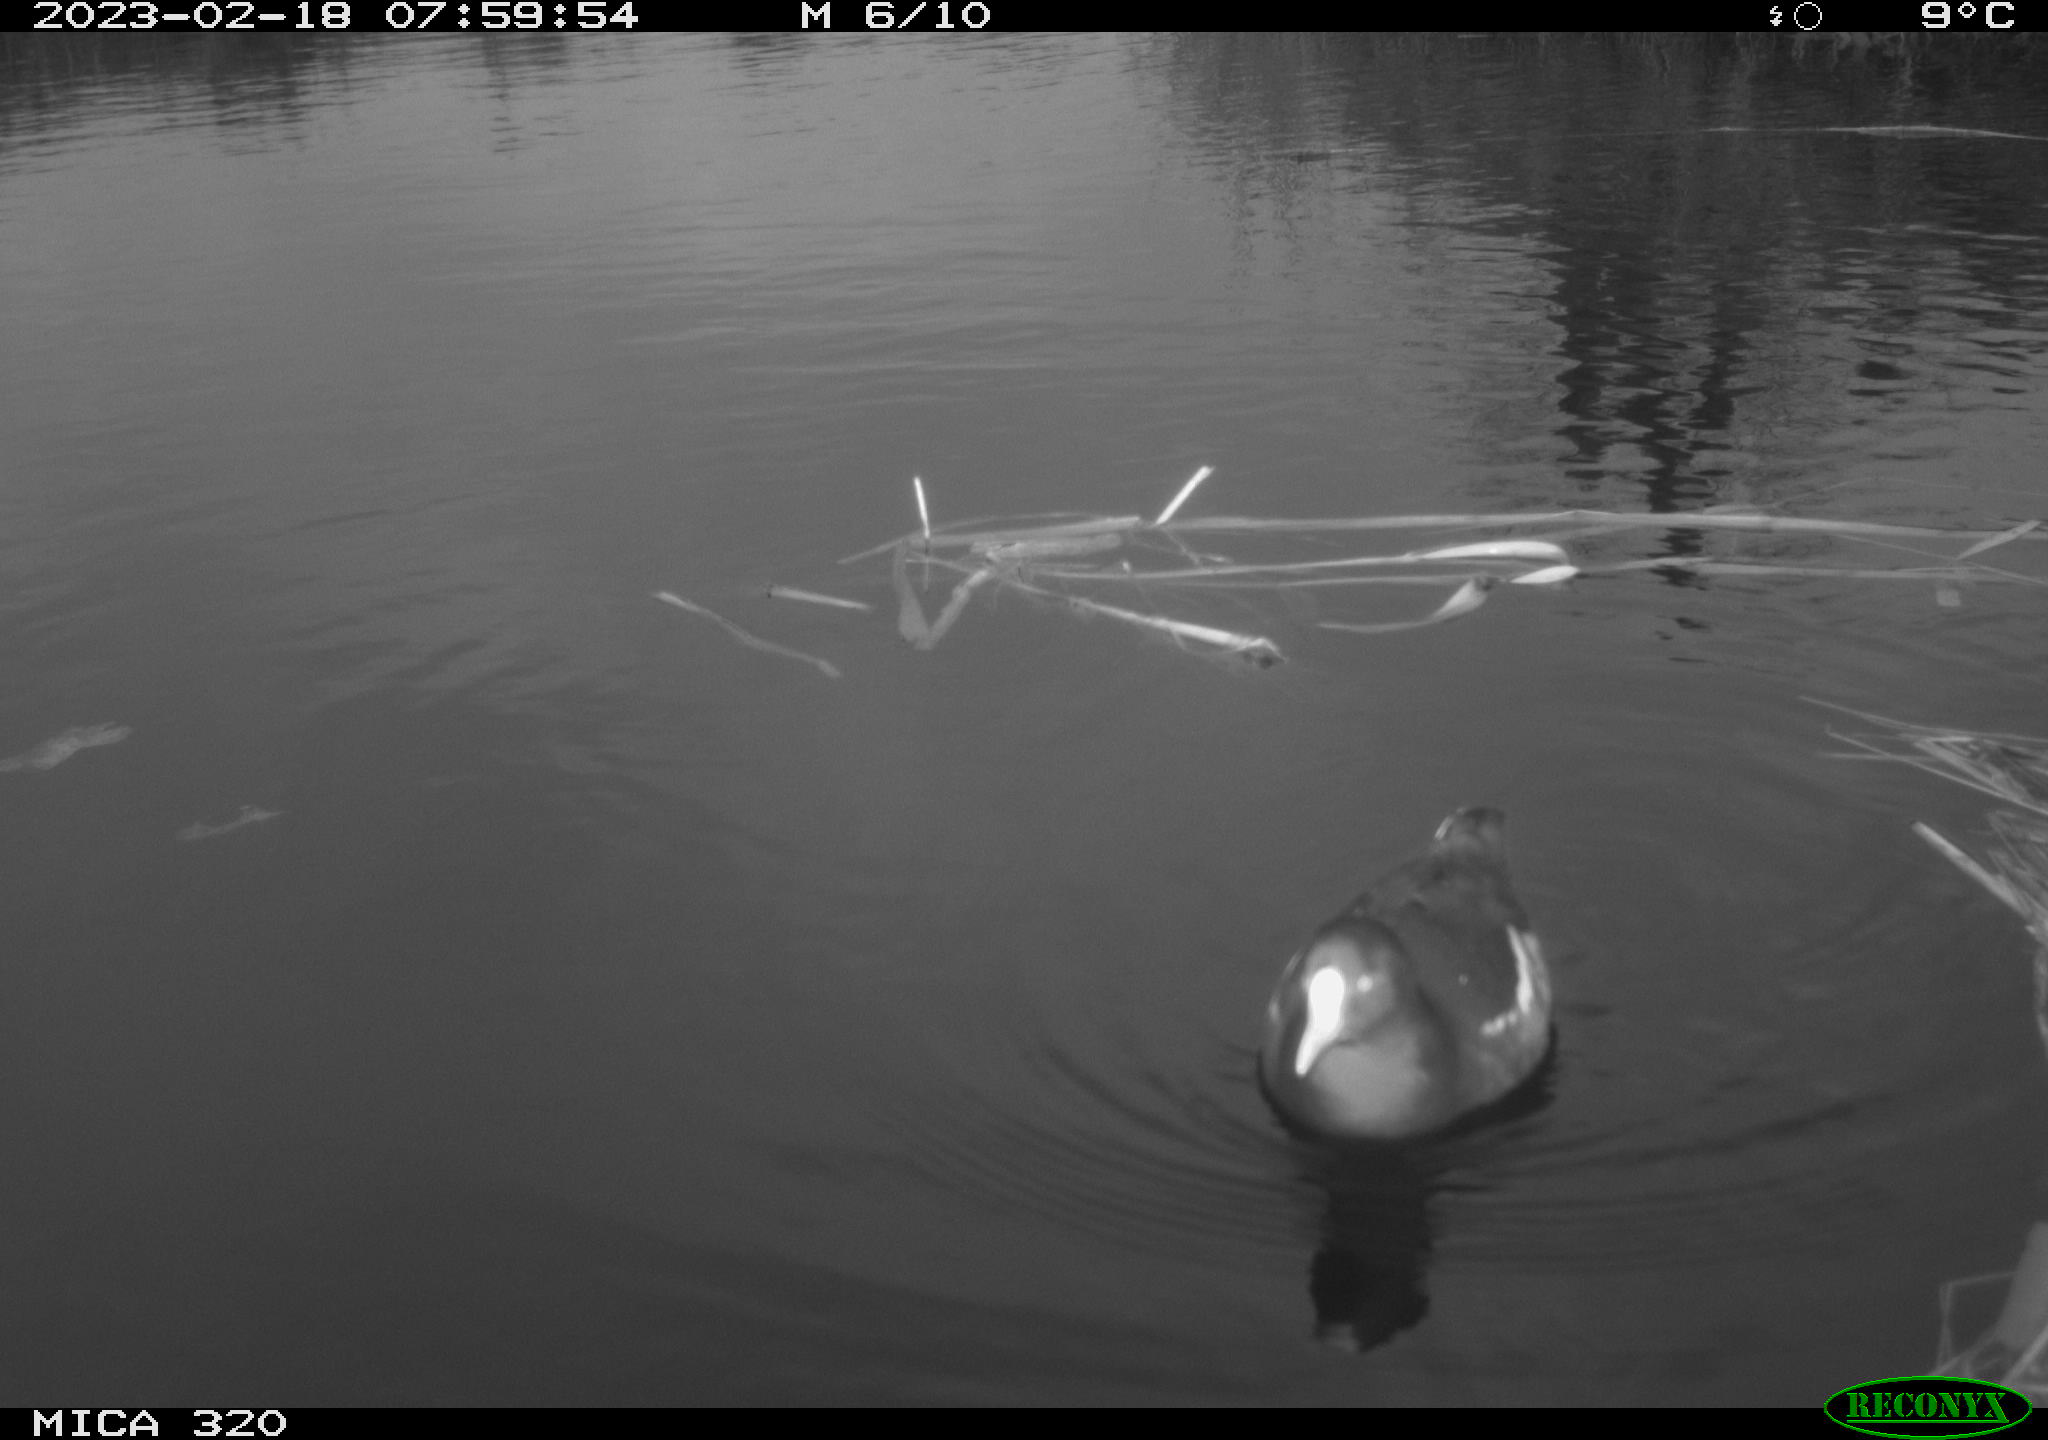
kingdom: Animalia
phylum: Chordata
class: Aves
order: Gruiformes
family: Rallidae
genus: Gallinula
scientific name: Gallinula chloropus
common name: Common moorhen
